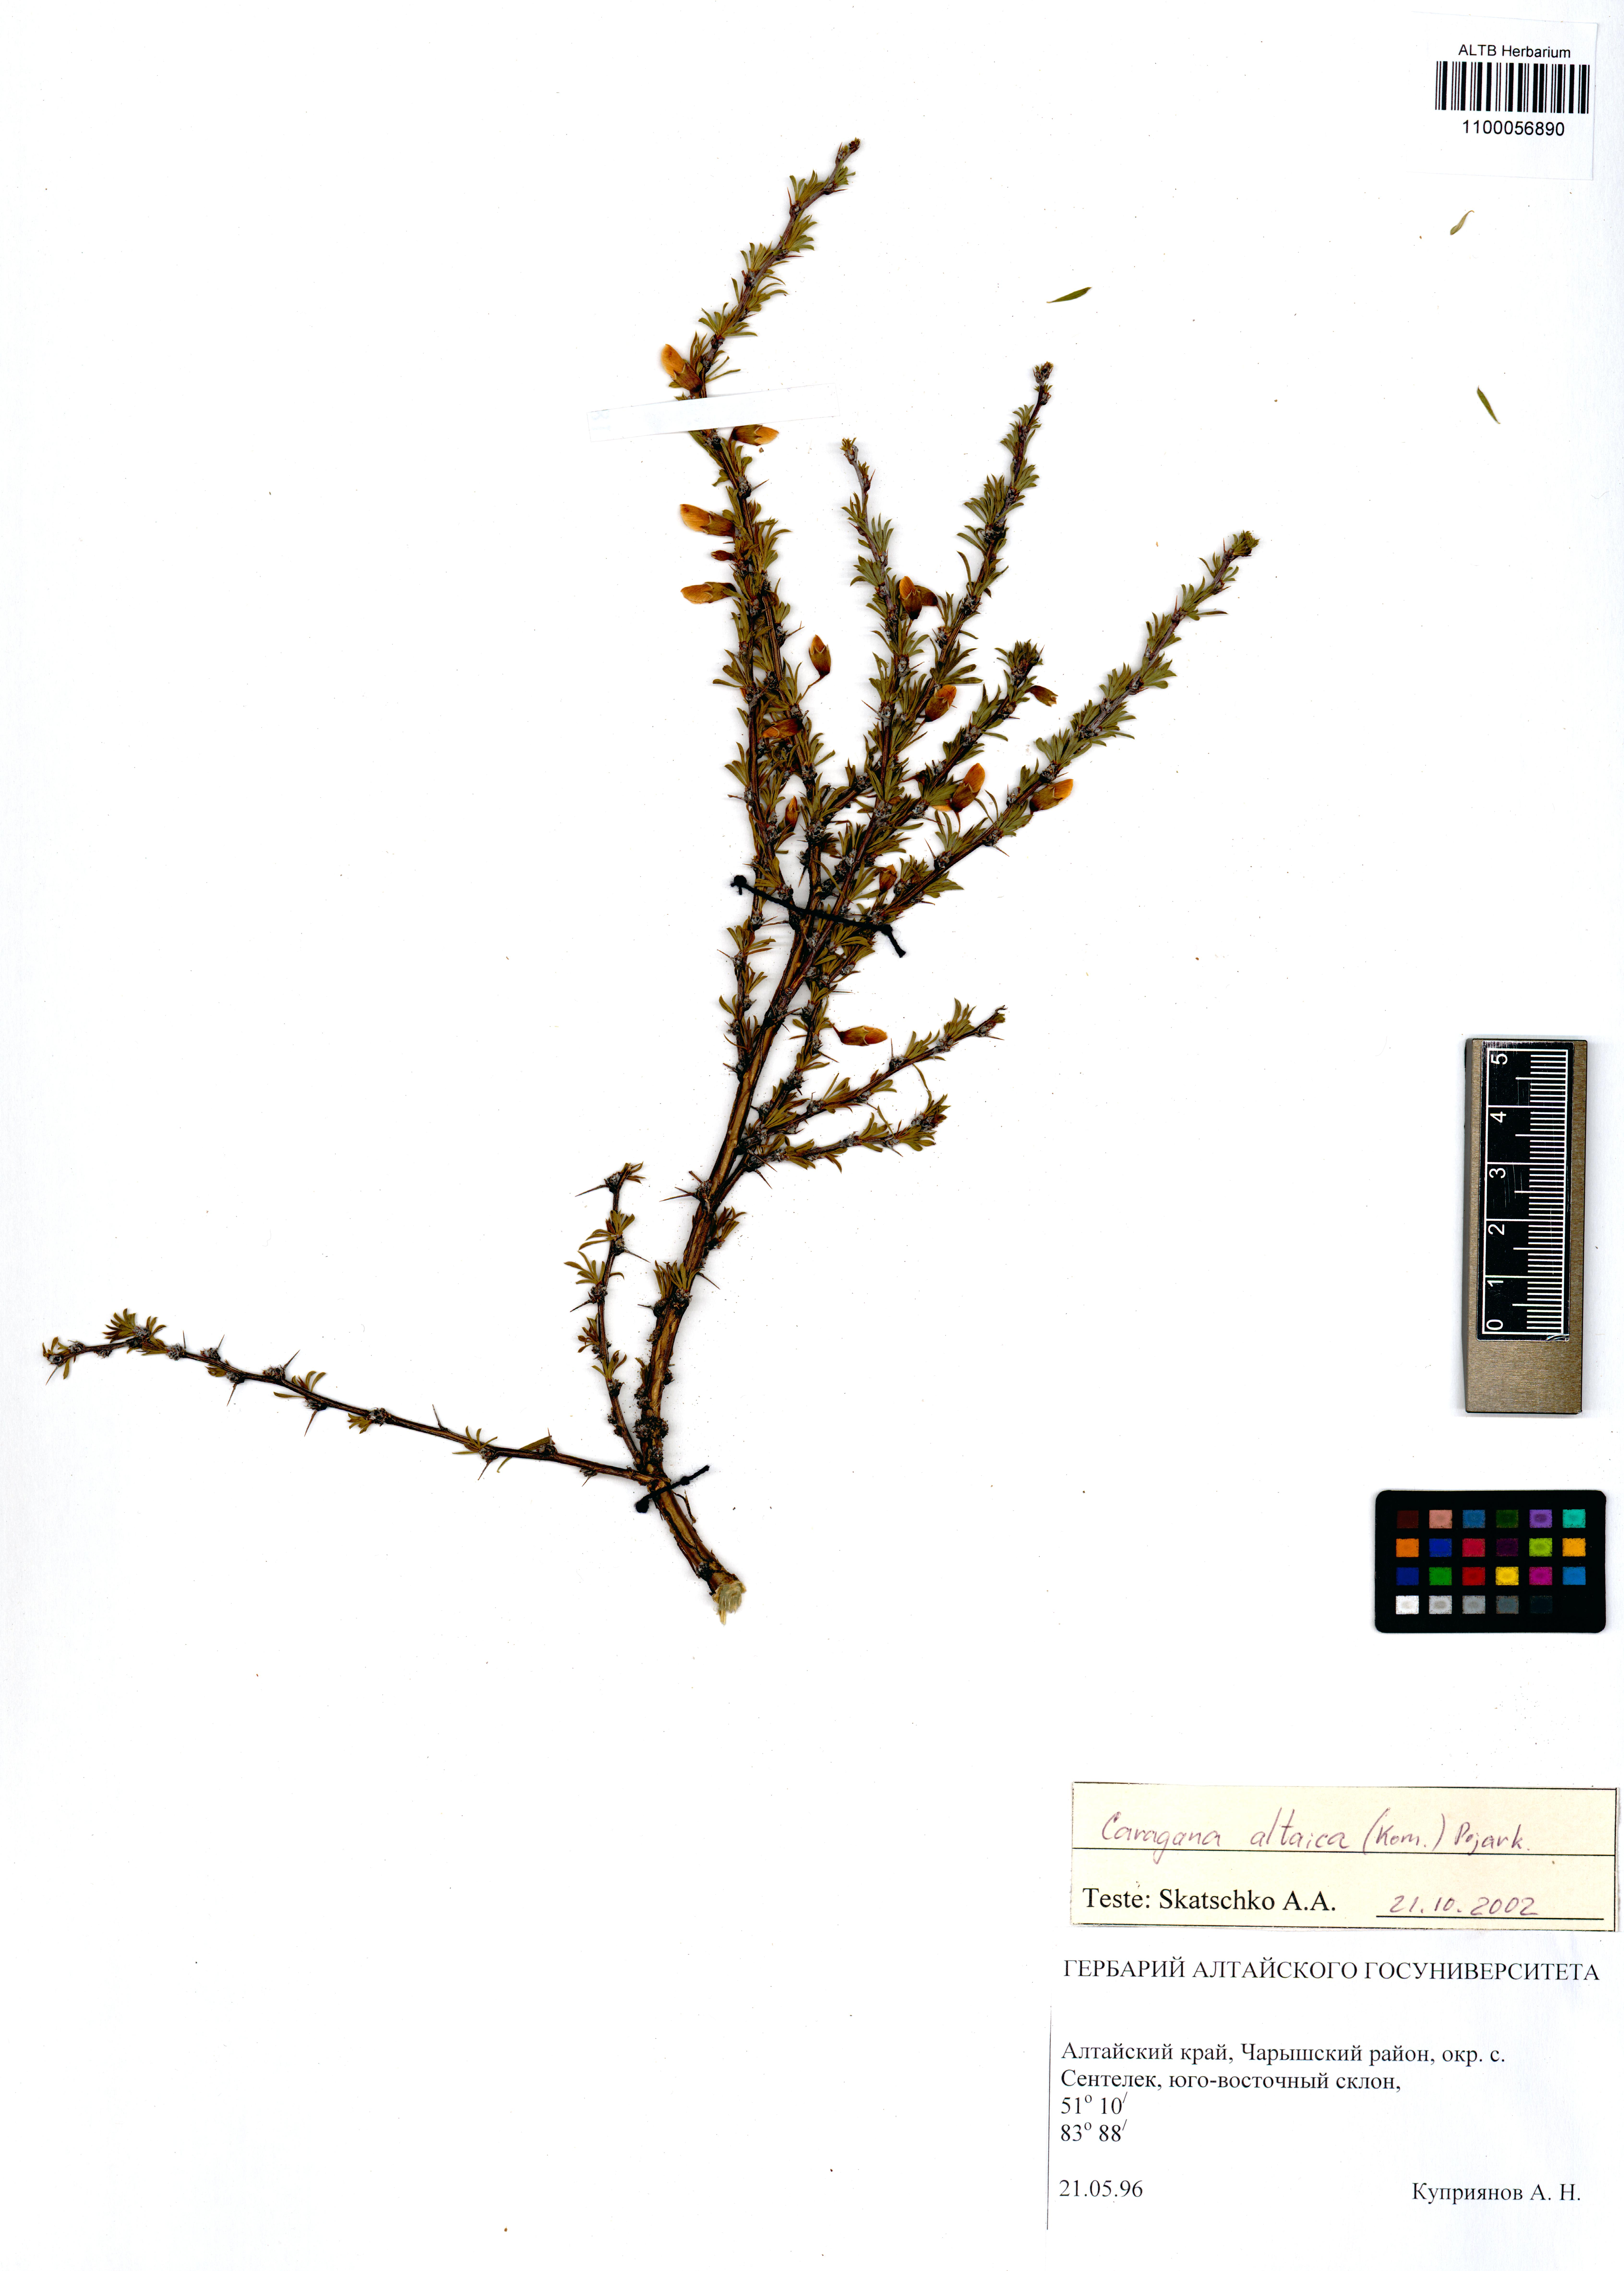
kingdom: Plantae
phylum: Tracheophyta
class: Magnoliopsida
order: Fabales
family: Fabaceae
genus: Caragana
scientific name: Caragana pygmaea
